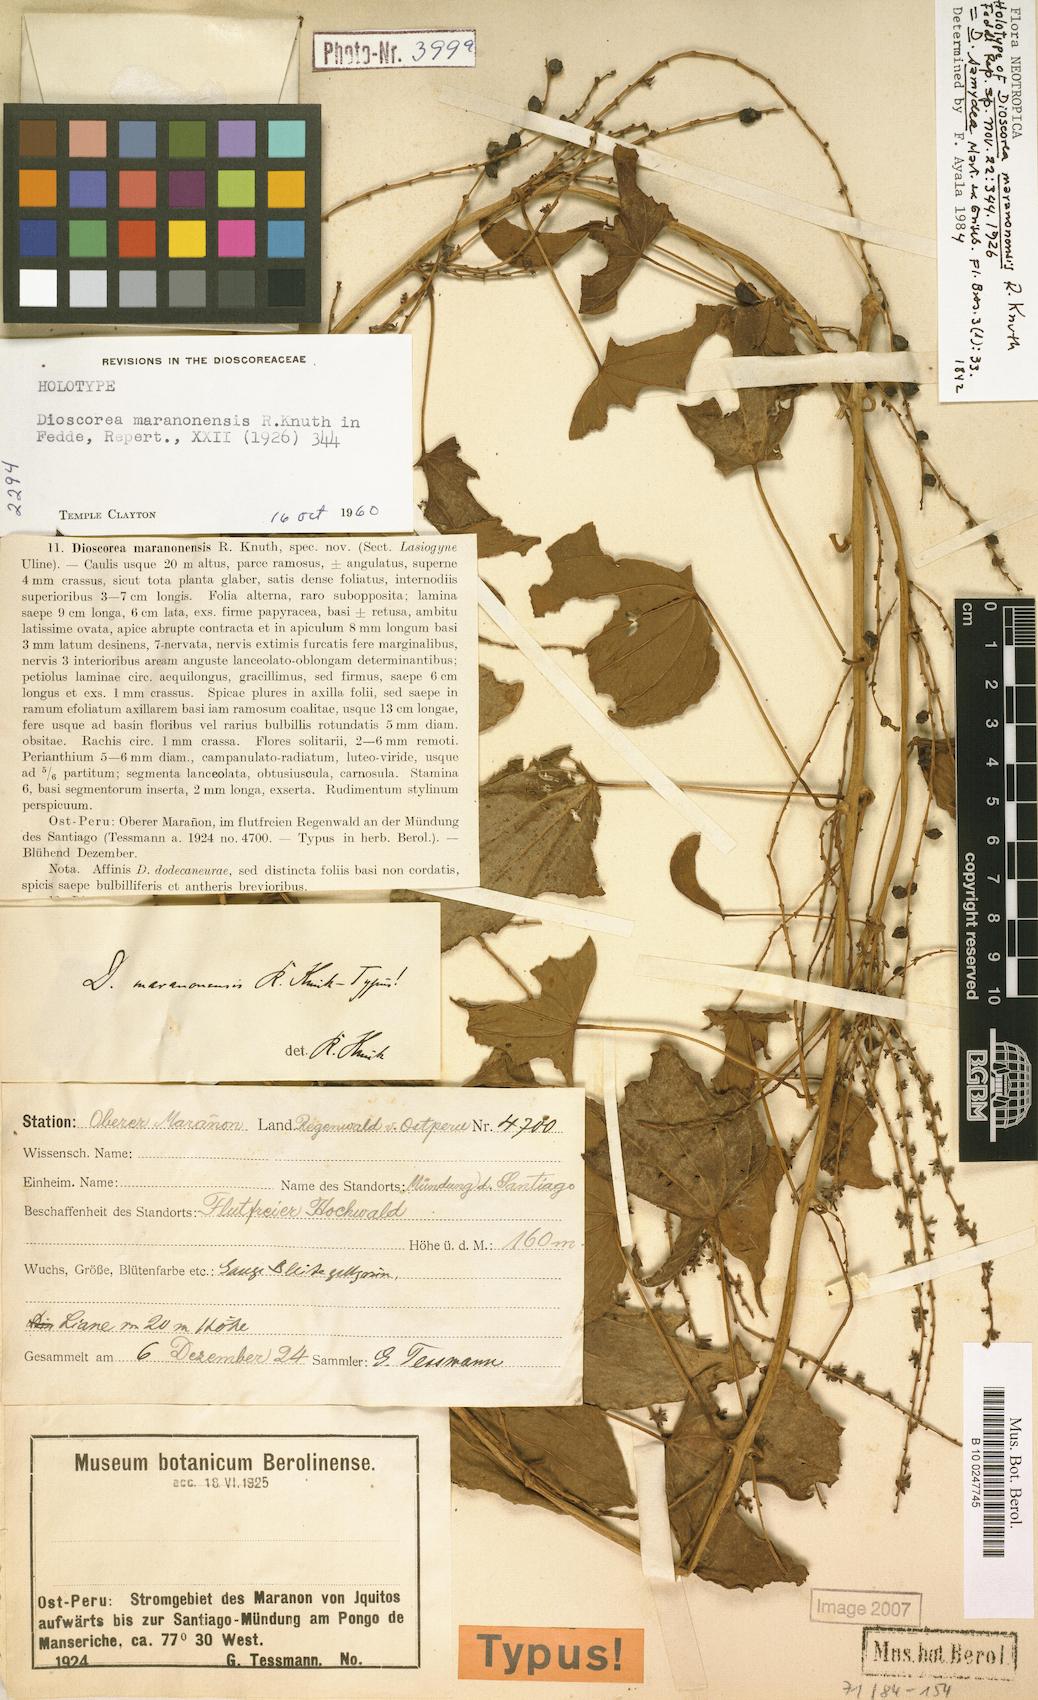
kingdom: Plantae
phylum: Tracheophyta
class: Liliopsida
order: Dioscoreales
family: Dioscoreaceae
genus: Dioscorea
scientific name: Dioscorea chondrocarpa
